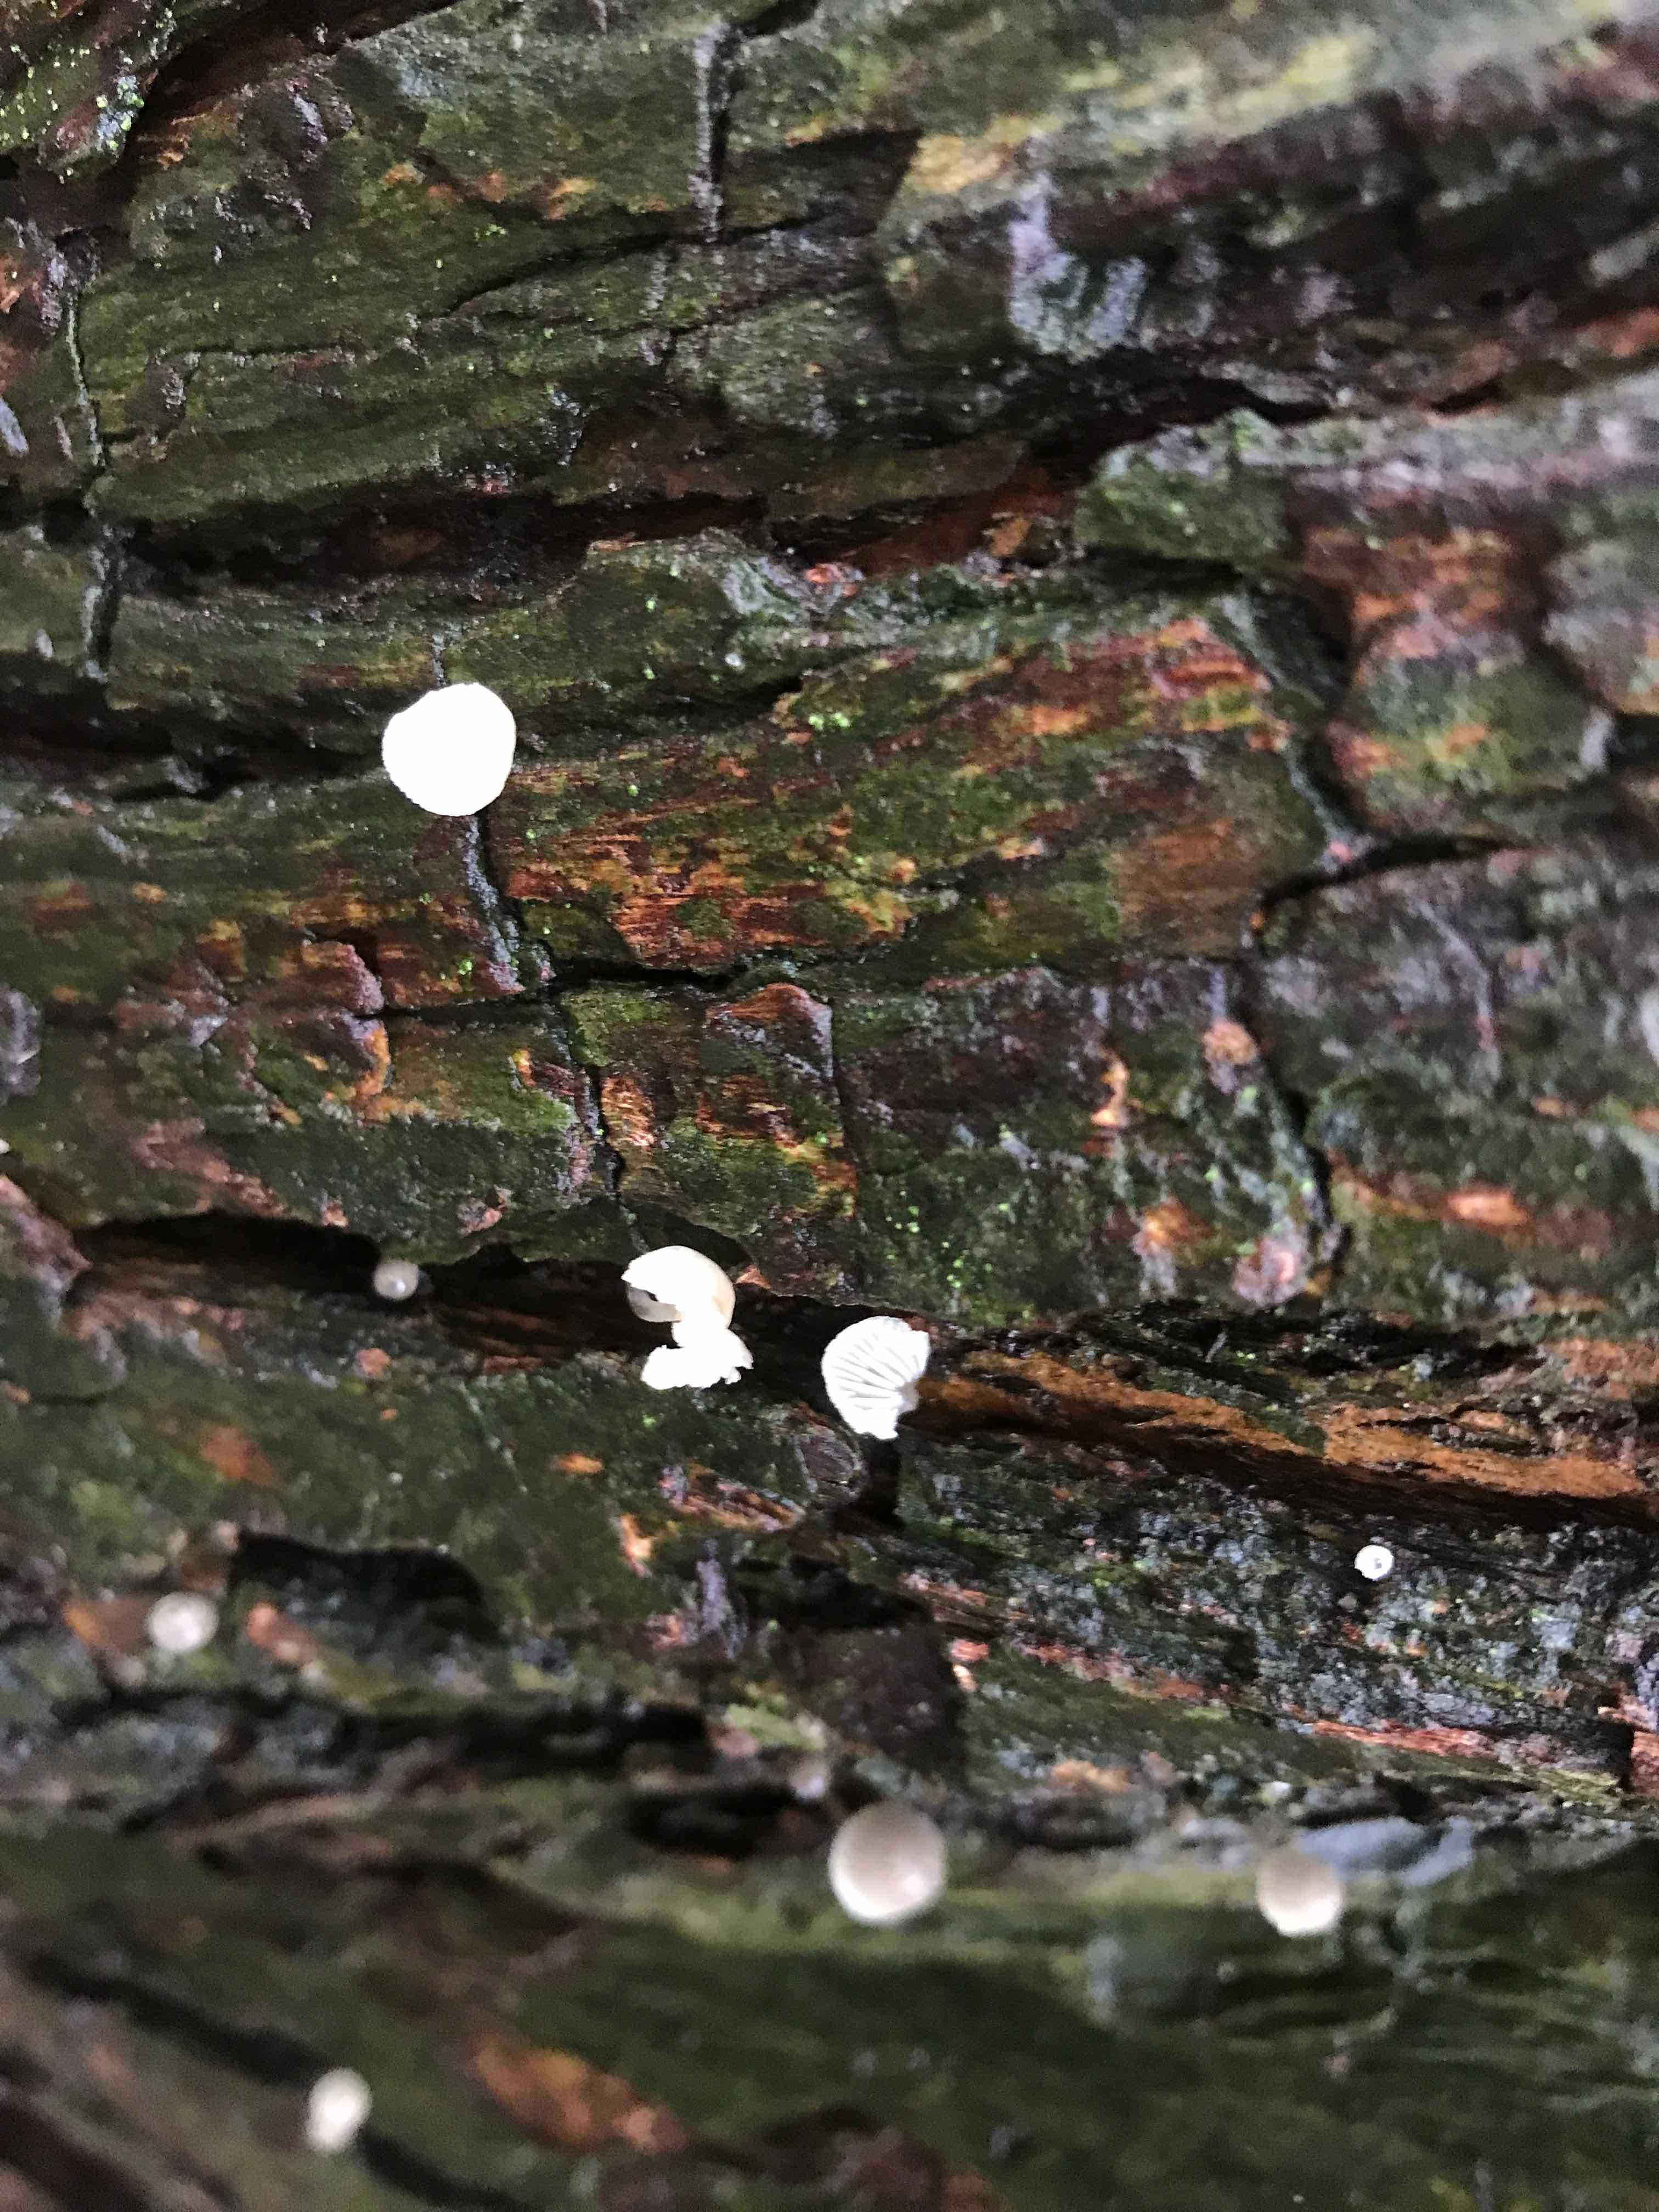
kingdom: Fungi
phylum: Basidiomycota
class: Agaricomycetes
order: Agaricales
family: Mycenaceae
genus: Mycena
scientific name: Mycena pseudocorticola
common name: gråblå bark-huesvamp
